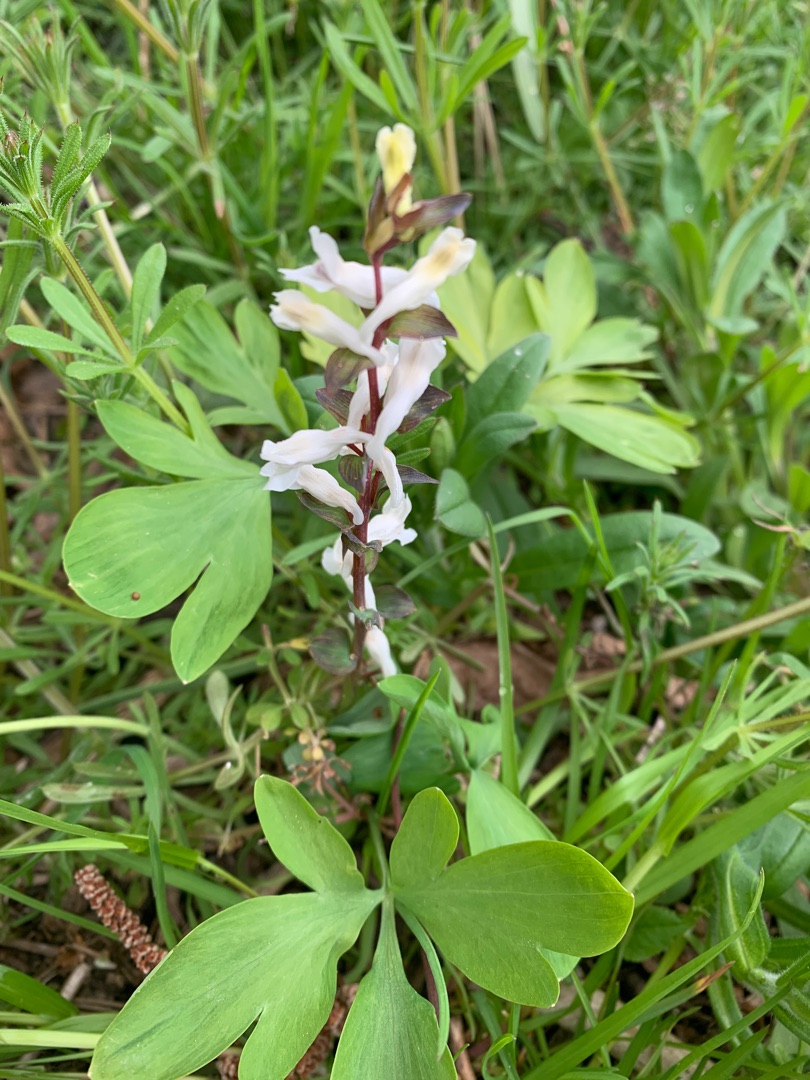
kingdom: Plantae
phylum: Tracheophyta
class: Magnoliopsida
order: Ranunculales
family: Papaveraceae
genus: Corydalis
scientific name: Corydalis cava
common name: Hulrodet lærkespore
